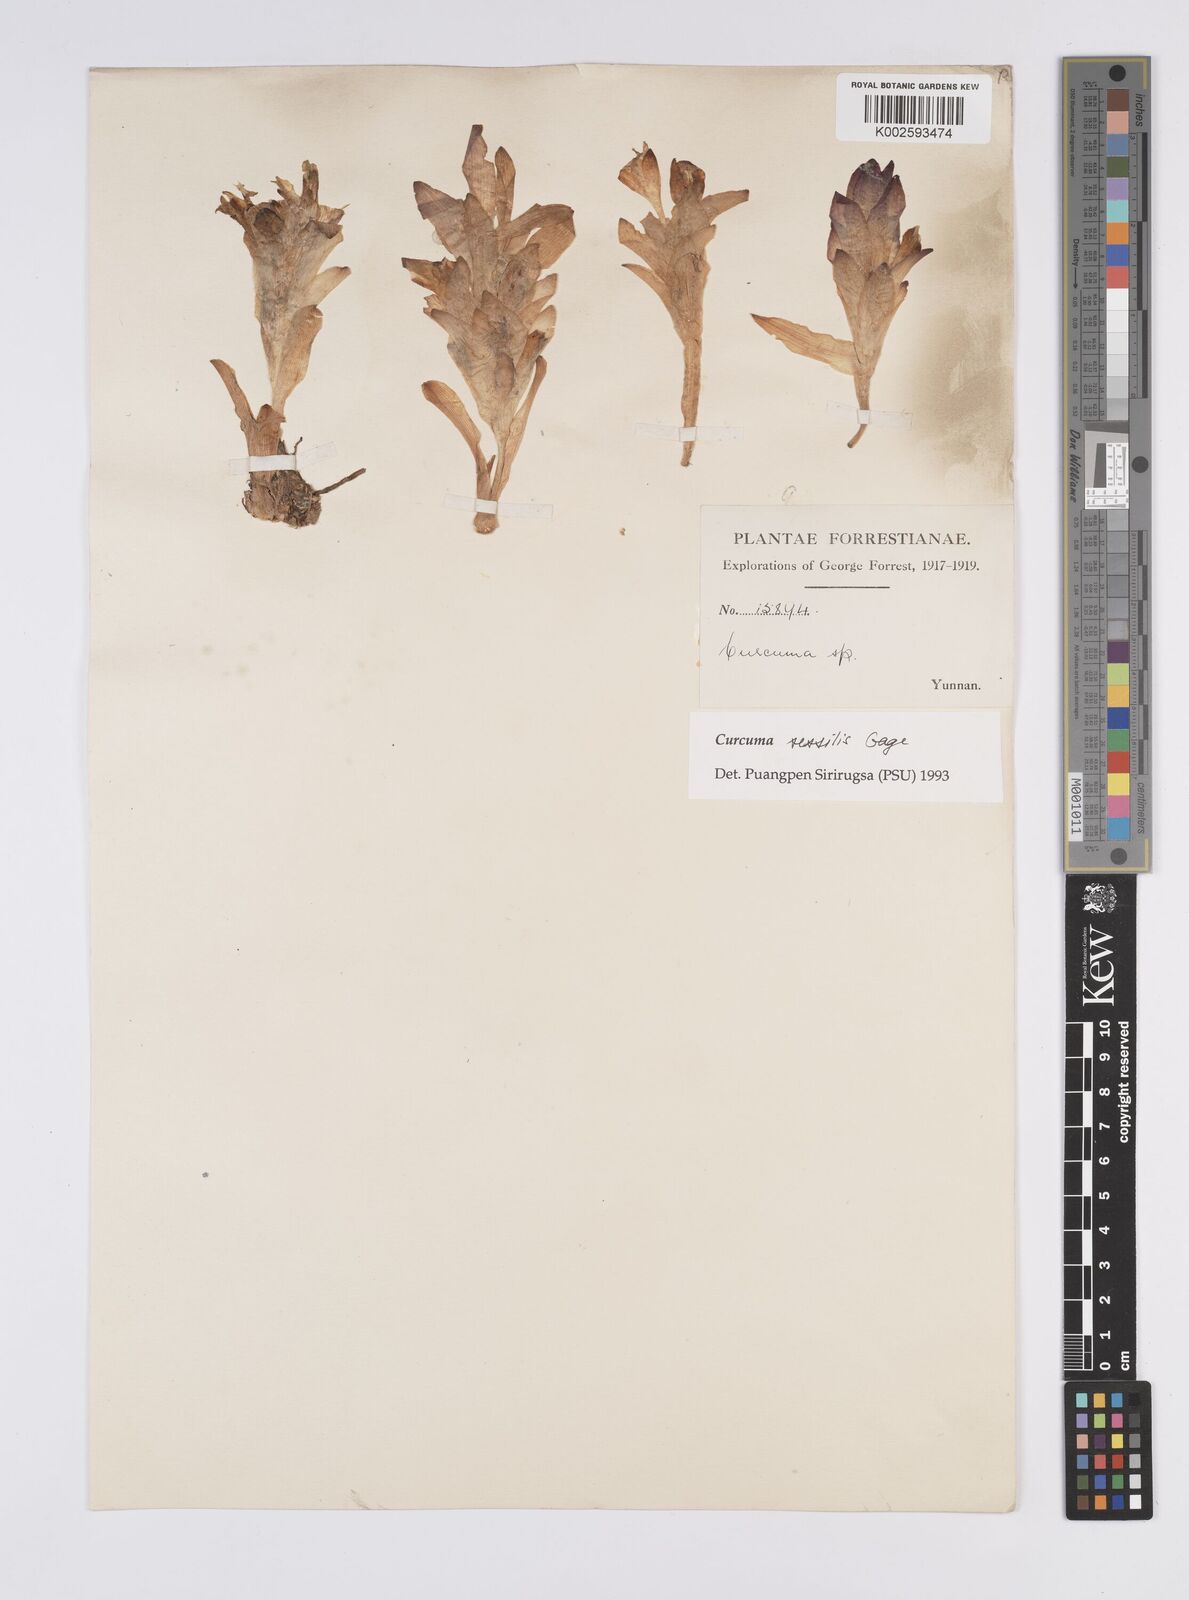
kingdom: Plantae
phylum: Tracheophyta
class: Liliopsida
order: Zingiberales
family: Zingiberaceae
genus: Curcuma
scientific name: Curcuma sessilis
